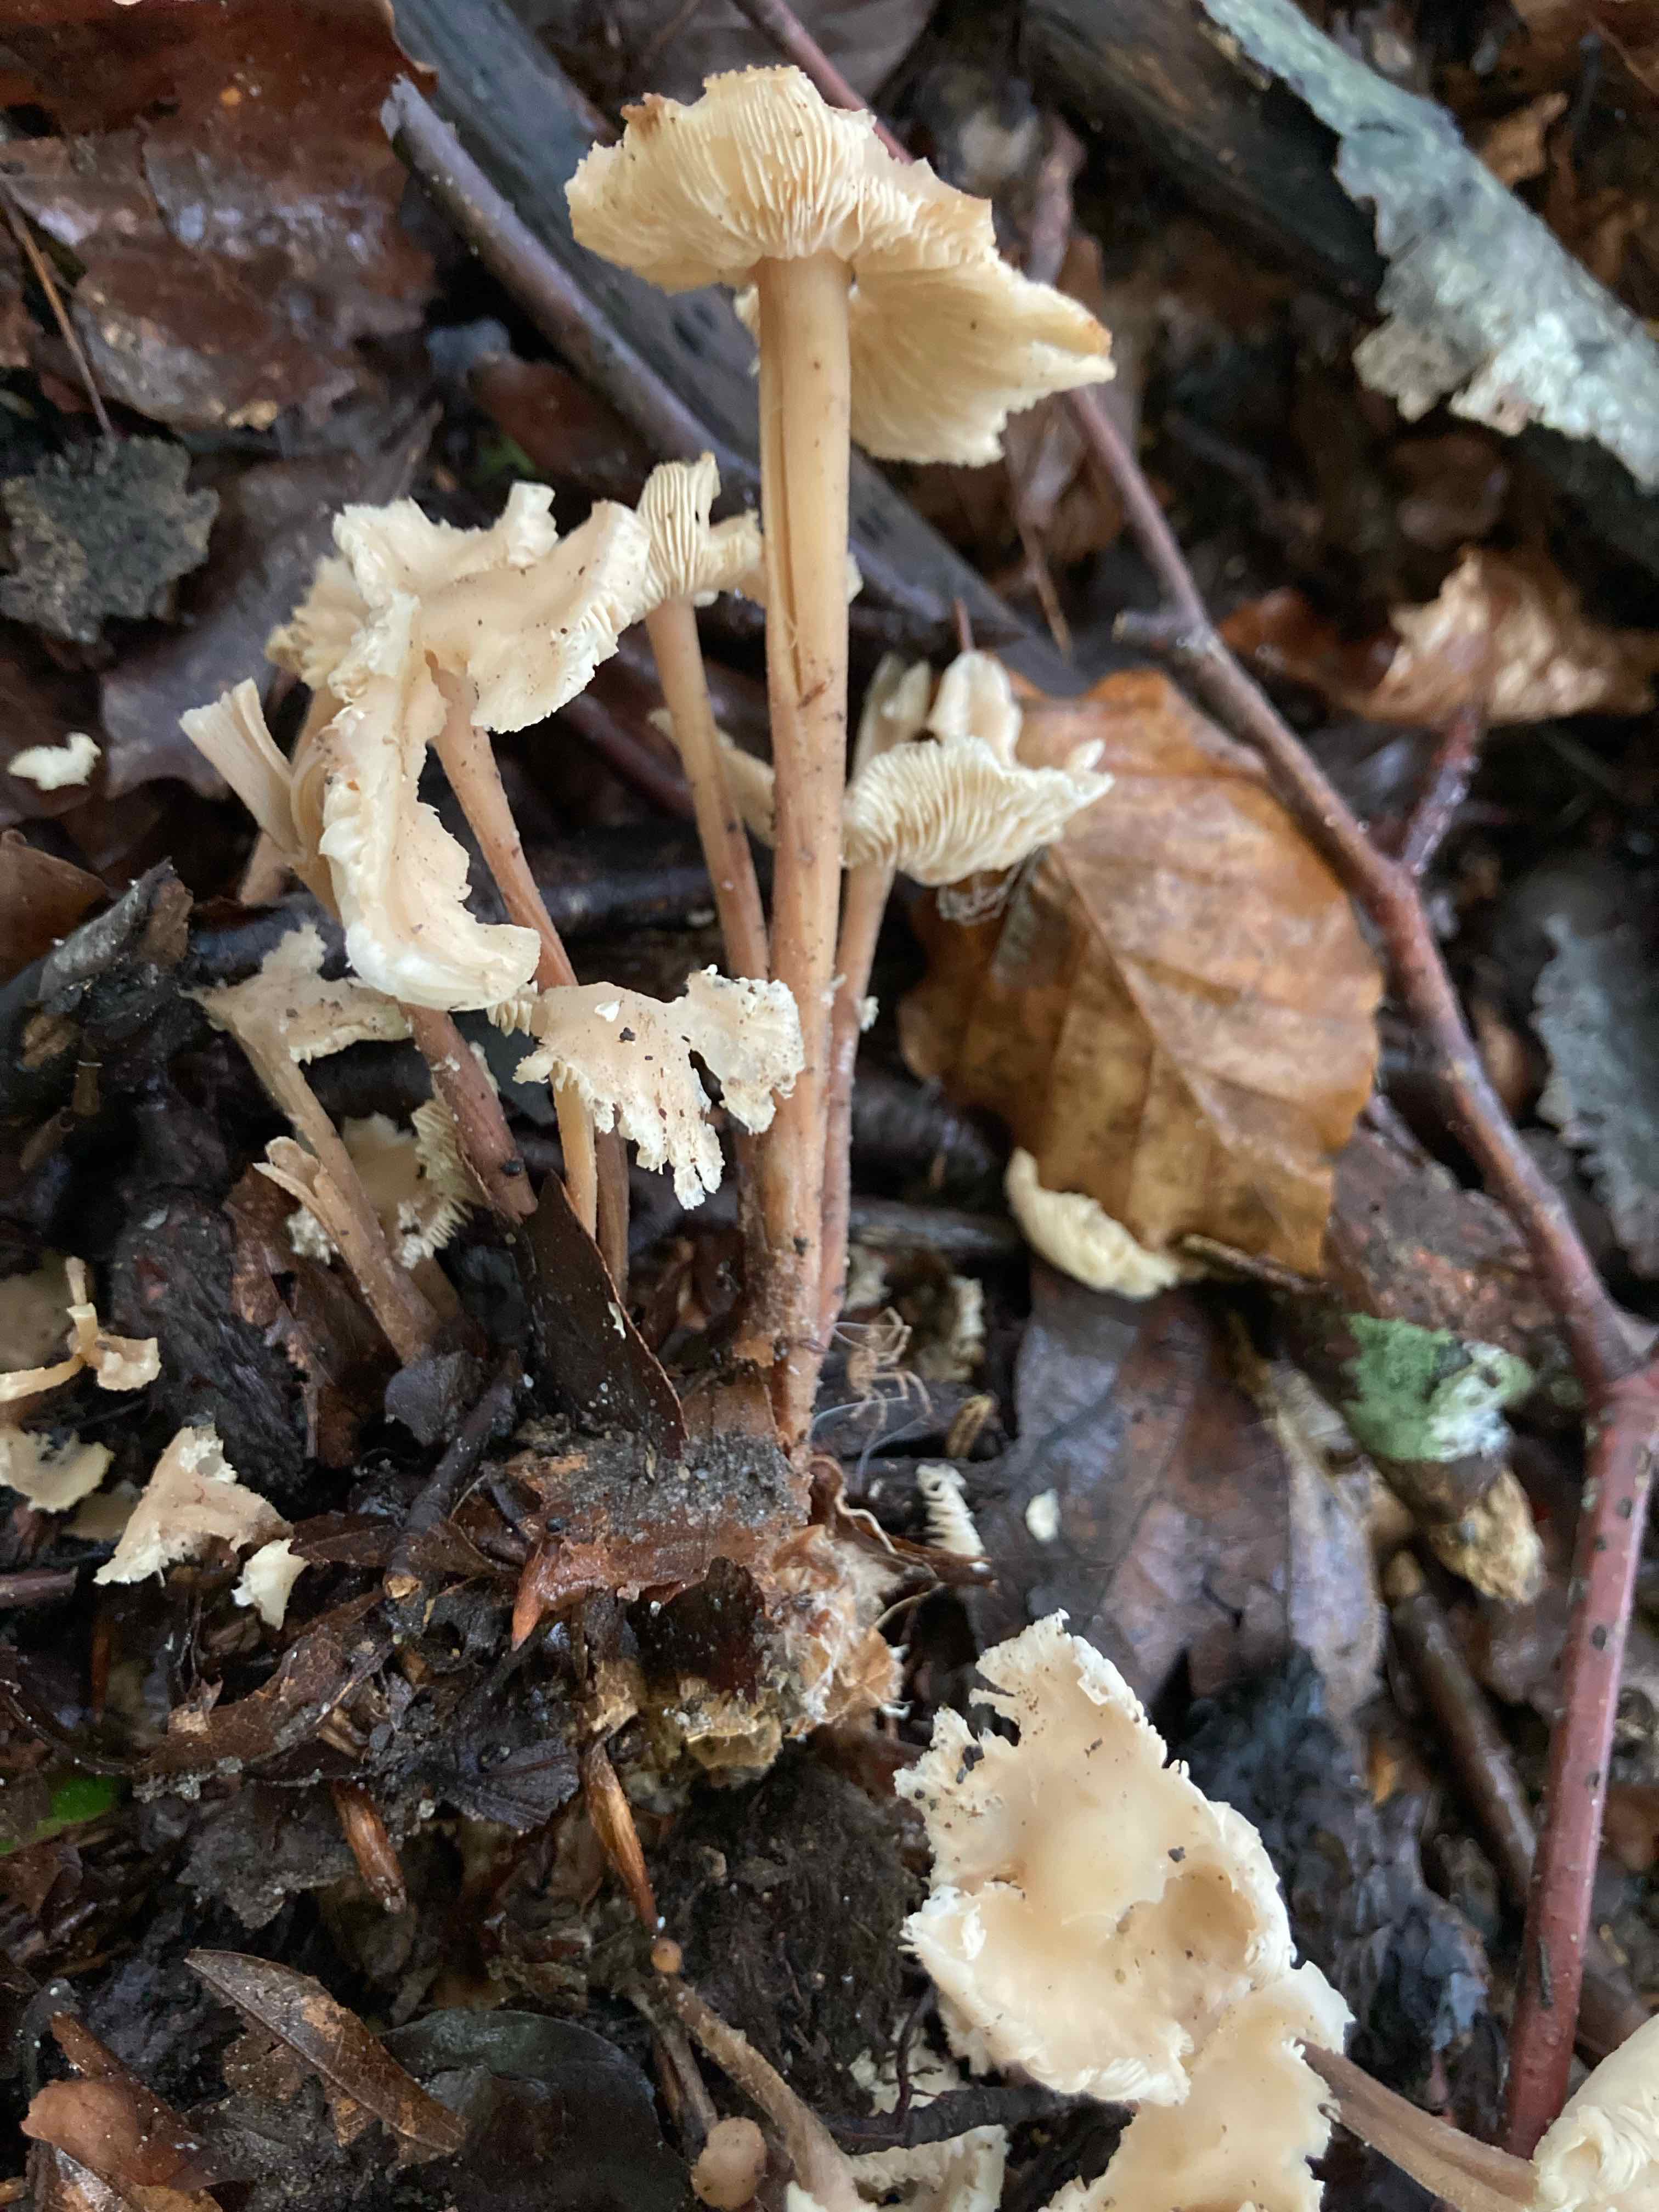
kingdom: Fungi
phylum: Basidiomycota
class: Agaricomycetes
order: Agaricales
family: Omphalotaceae
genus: Collybiopsis
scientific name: Collybiopsis confluens
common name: knippe-fladhat
